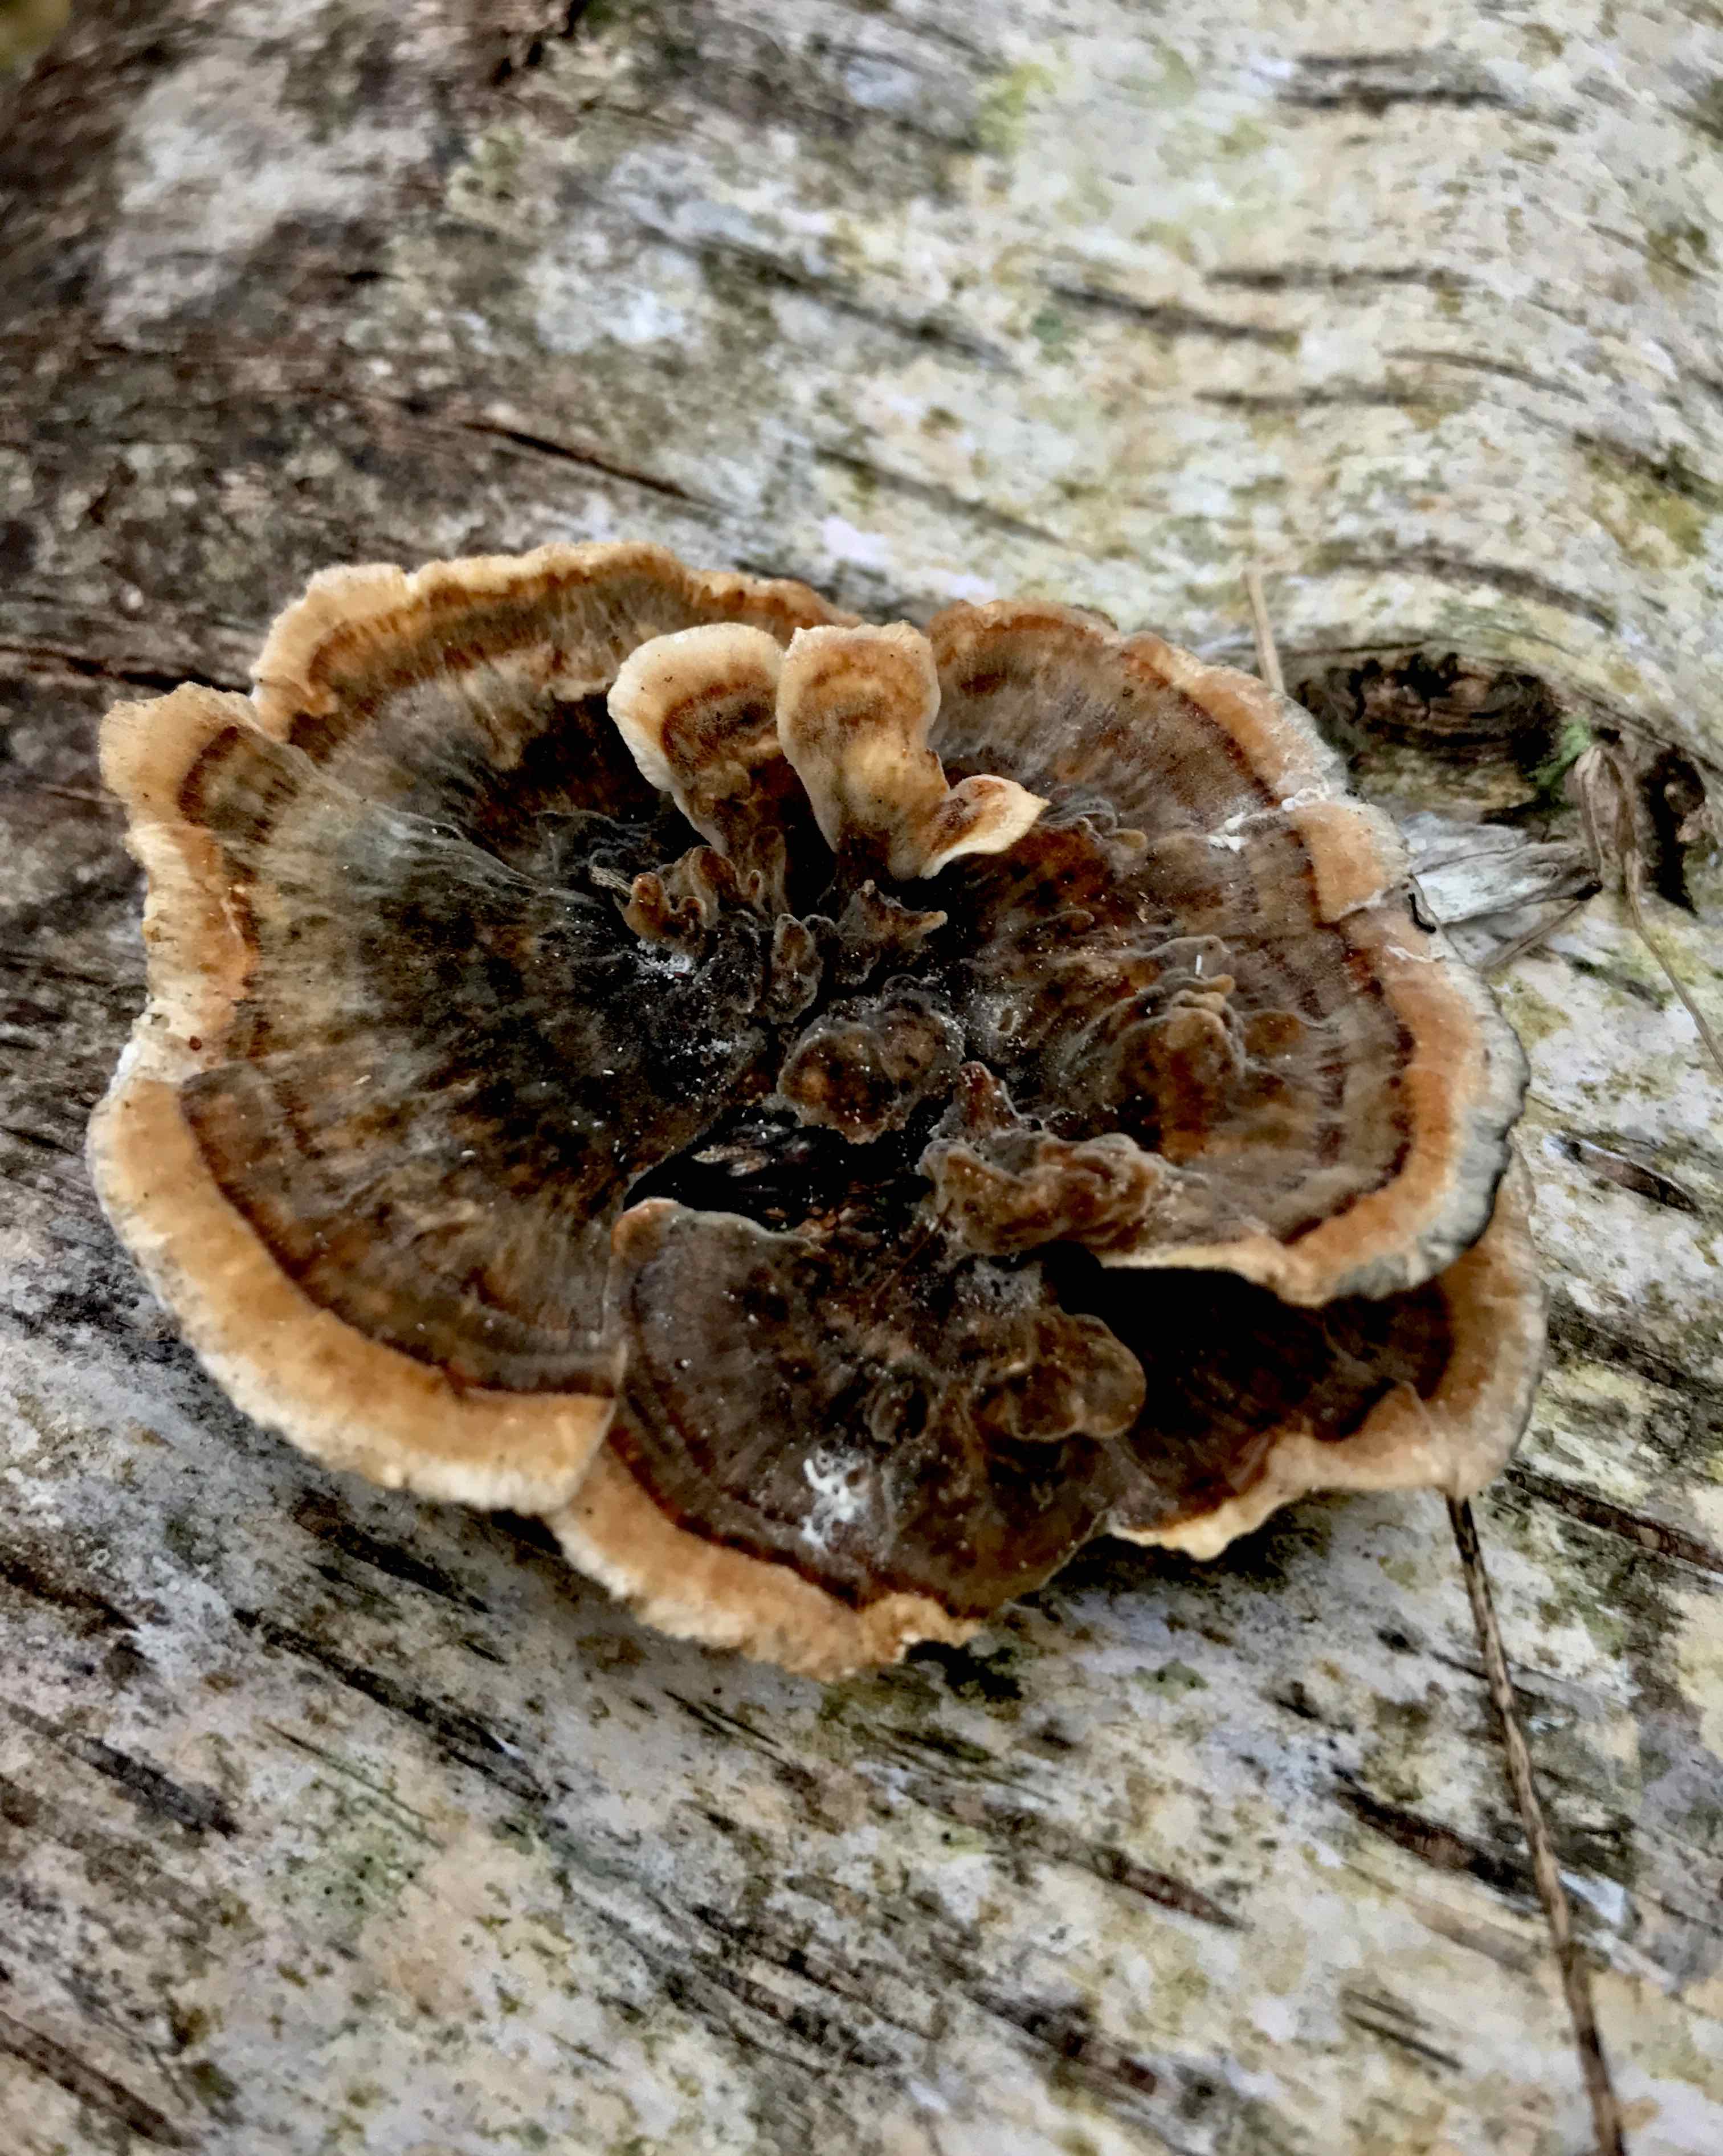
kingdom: Fungi
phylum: Basidiomycota
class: Agaricomycetes
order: Polyporales
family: Polyporaceae
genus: Trametes
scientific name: Trametes versicolor
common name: broget læderporesvamp
